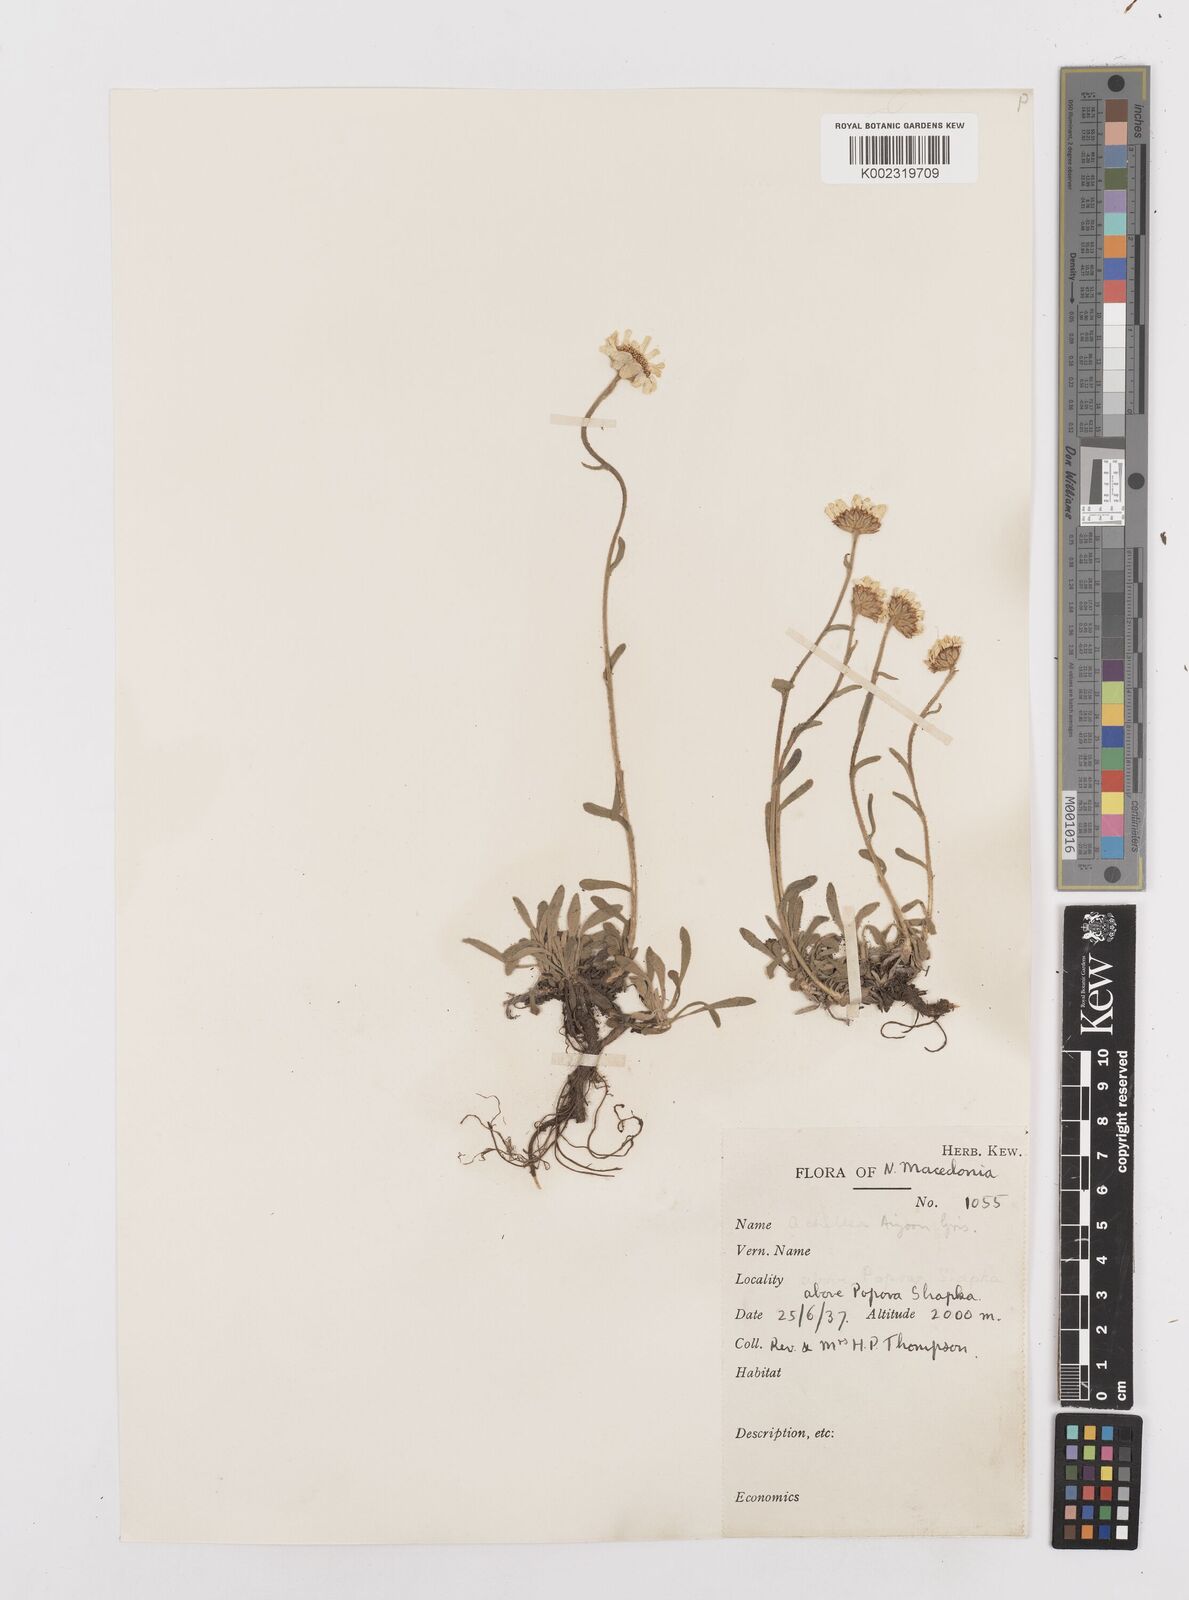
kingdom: Plantae
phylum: Tracheophyta
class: Magnoliopsida
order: Asterales
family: Asteraceae
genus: Achillea
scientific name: Achillea ageratifolia
